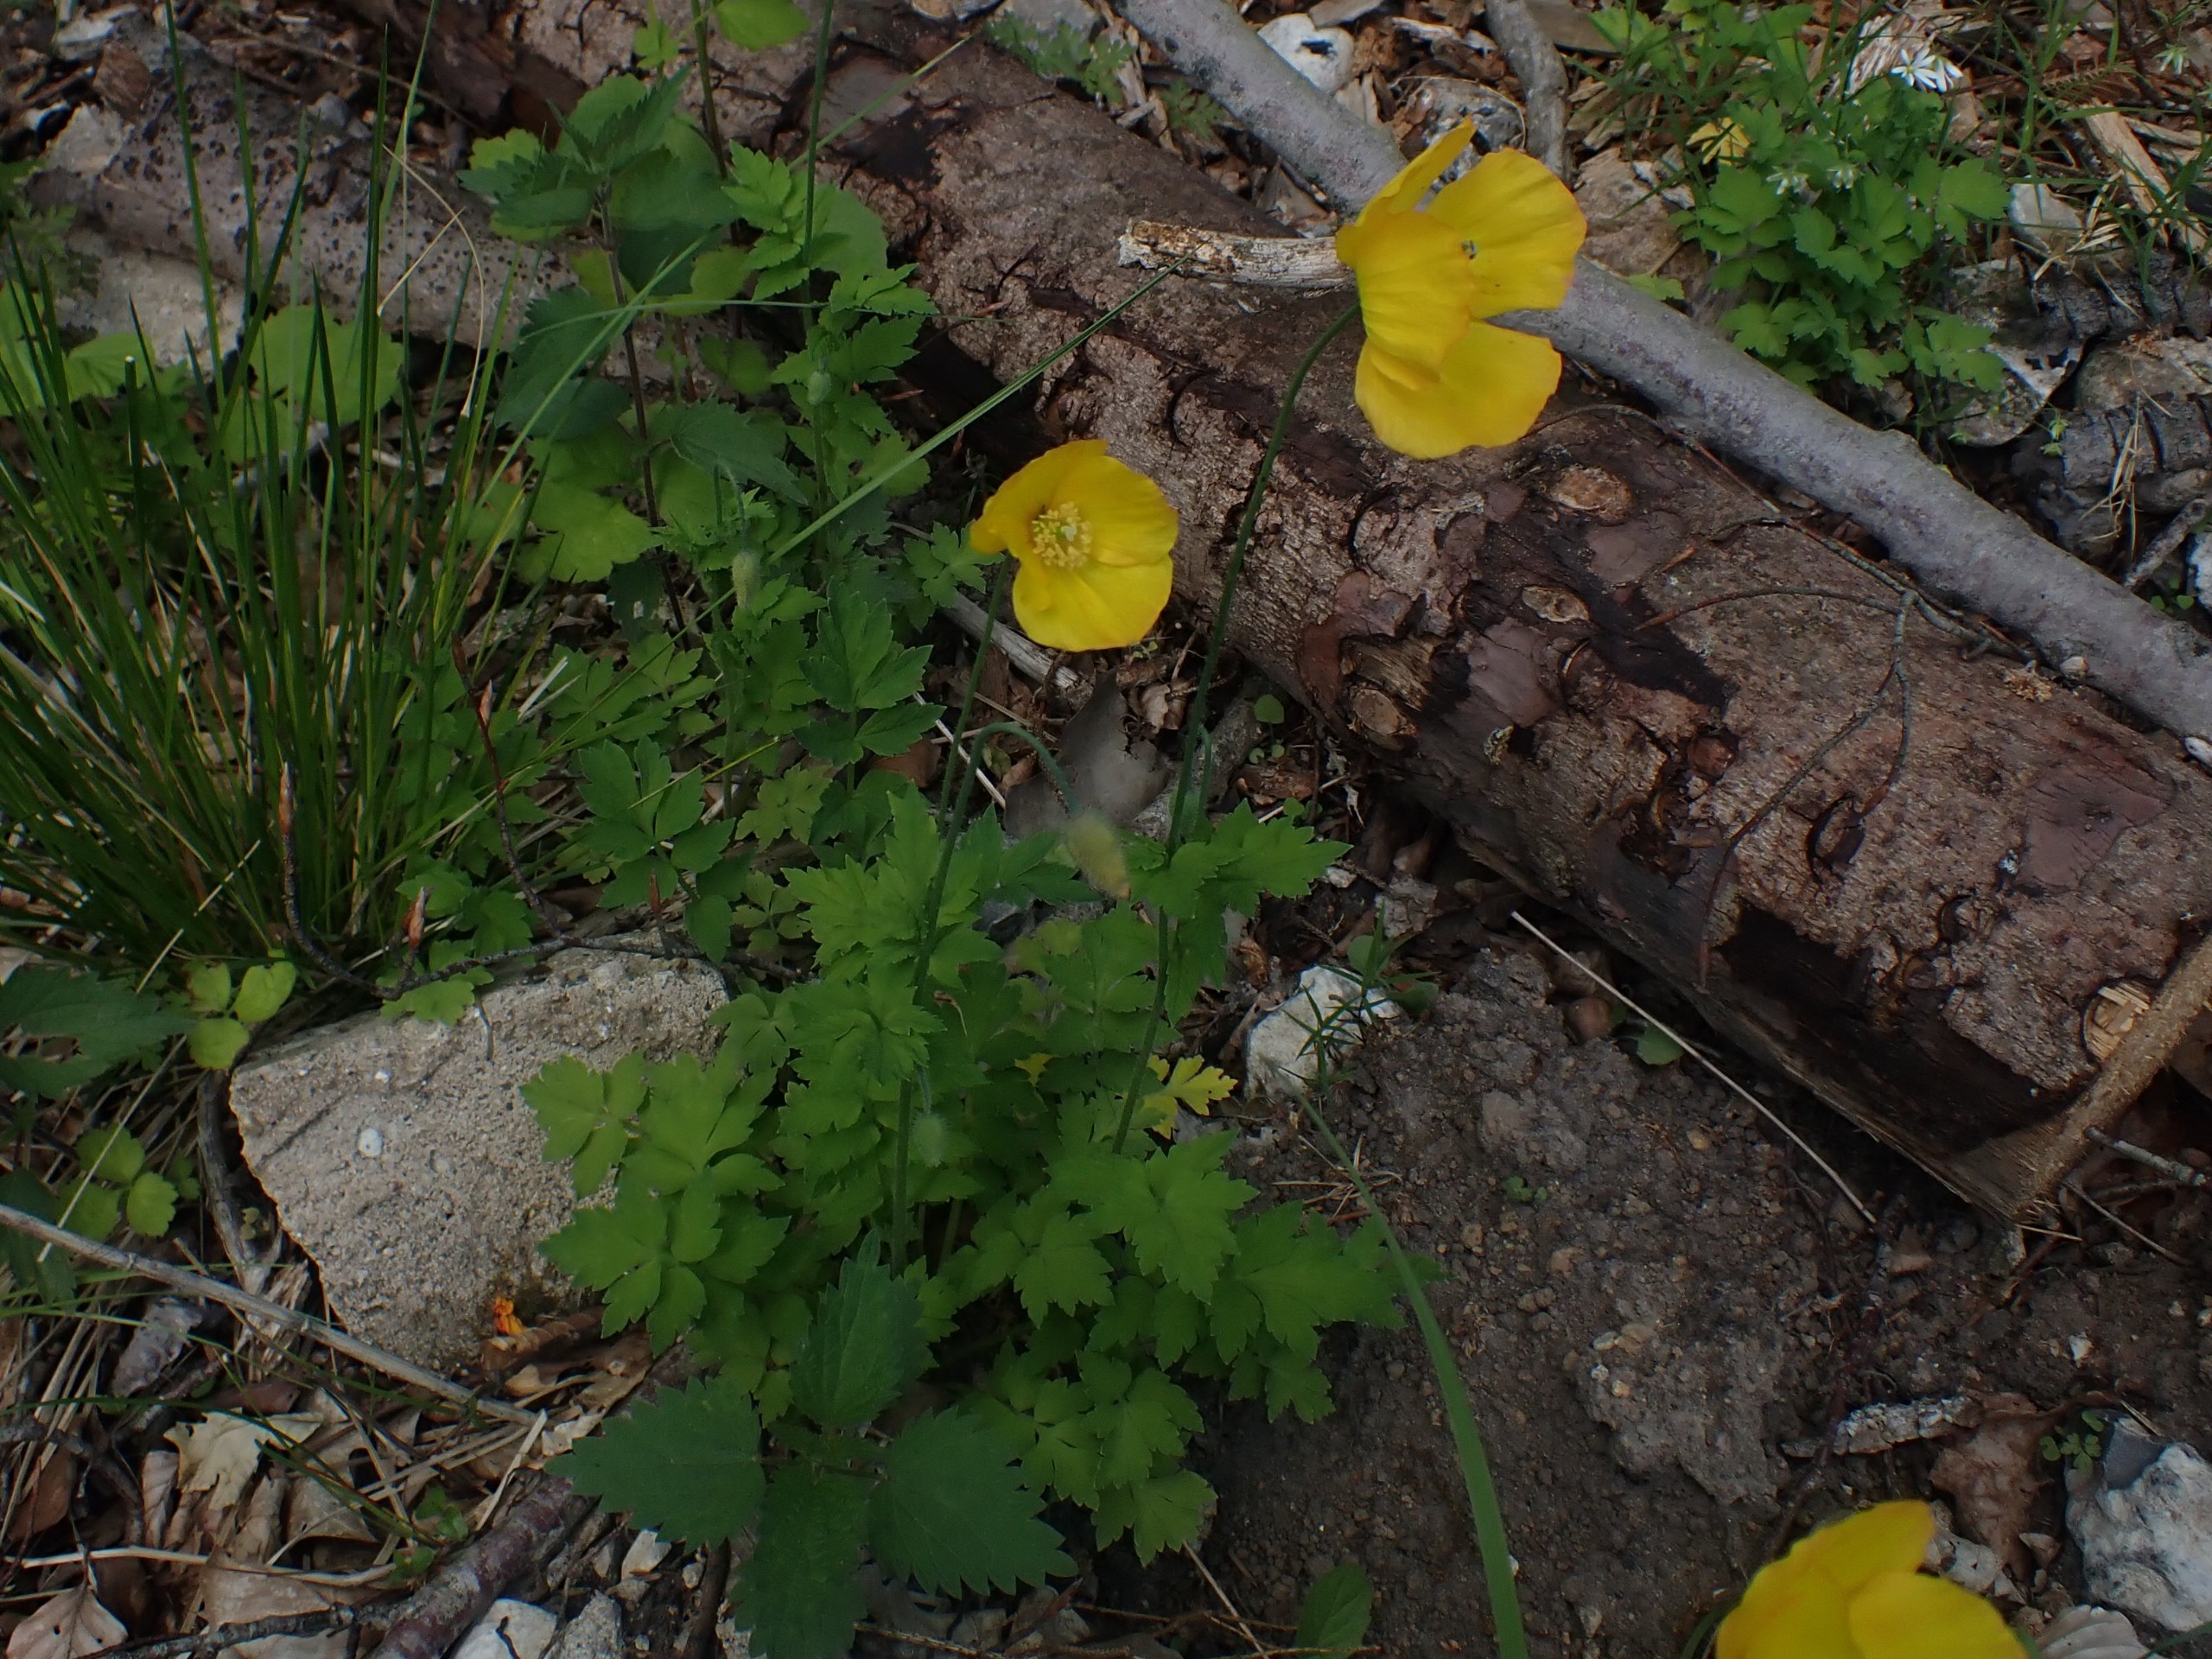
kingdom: Plantae
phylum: Tracheophyta
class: Magnoliopsida
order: Ranunculales
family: Papaveraceae
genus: Papaver
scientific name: Papaver cambricum
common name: Skov-valmue
